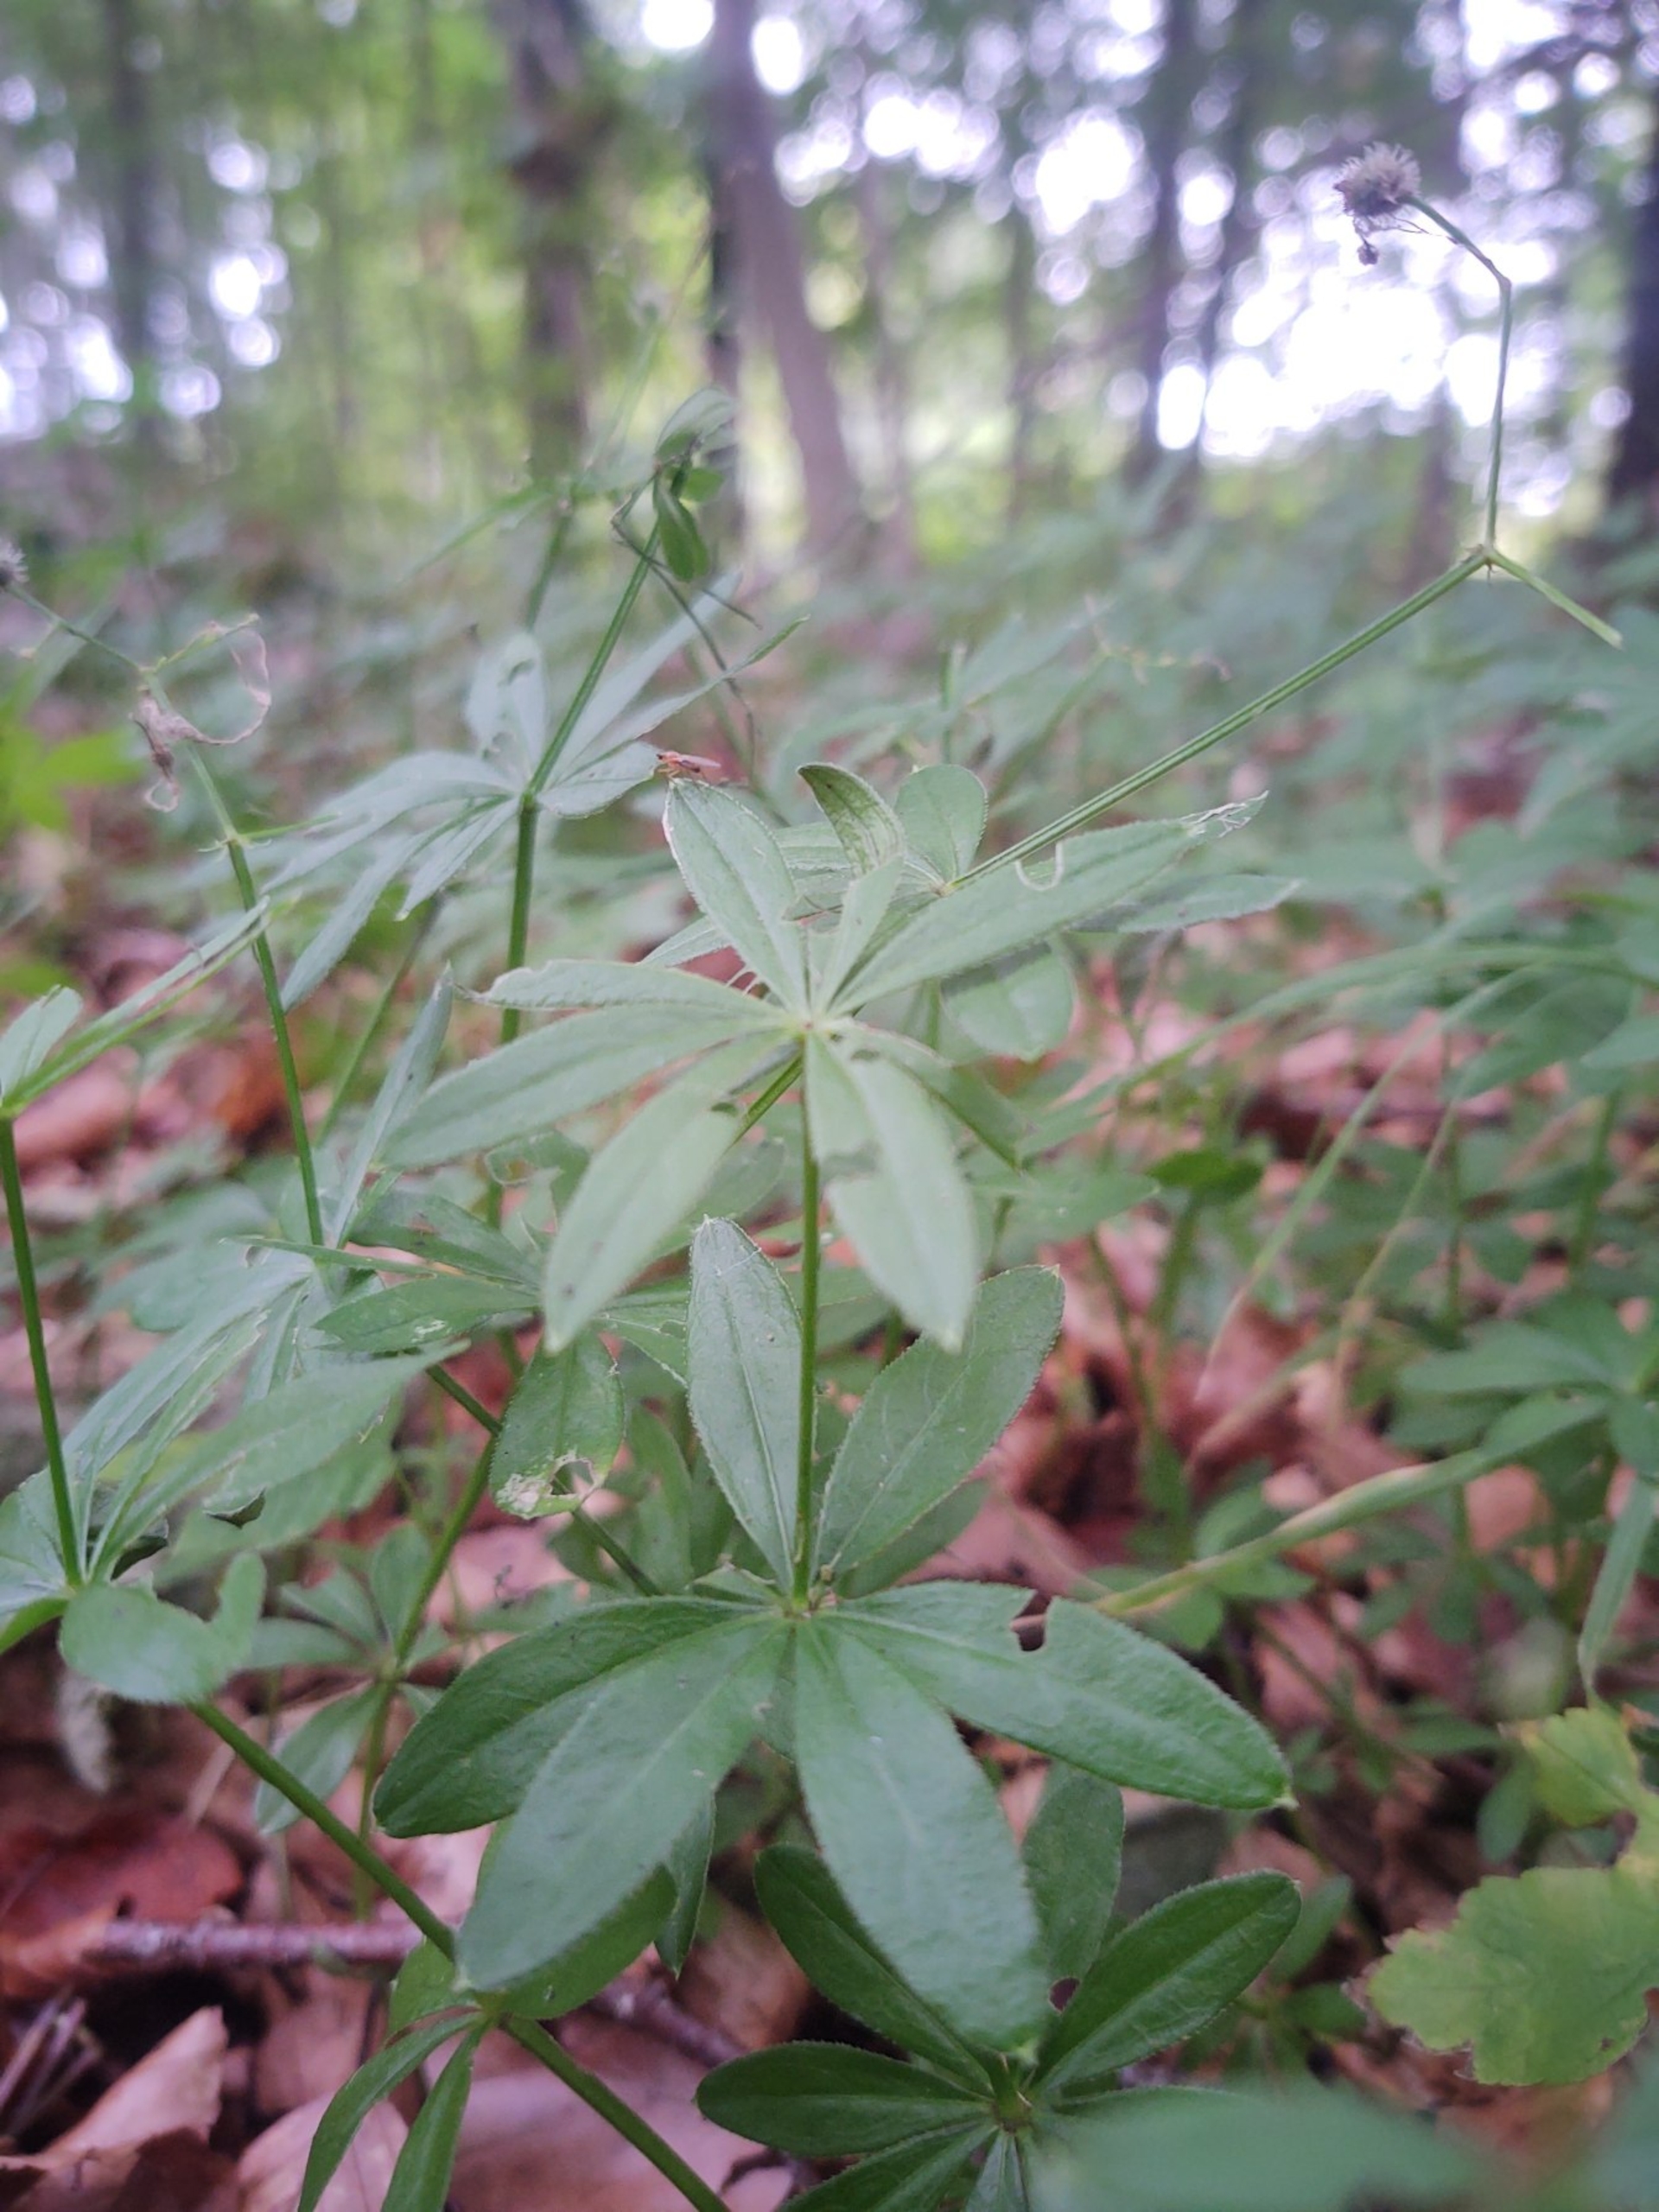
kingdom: Plantae
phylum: Tracheophyta
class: Magnoliopsida
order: Gentianales
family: Rubiaceae
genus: Galium
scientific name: Galium odoratum
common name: Skovmærke
